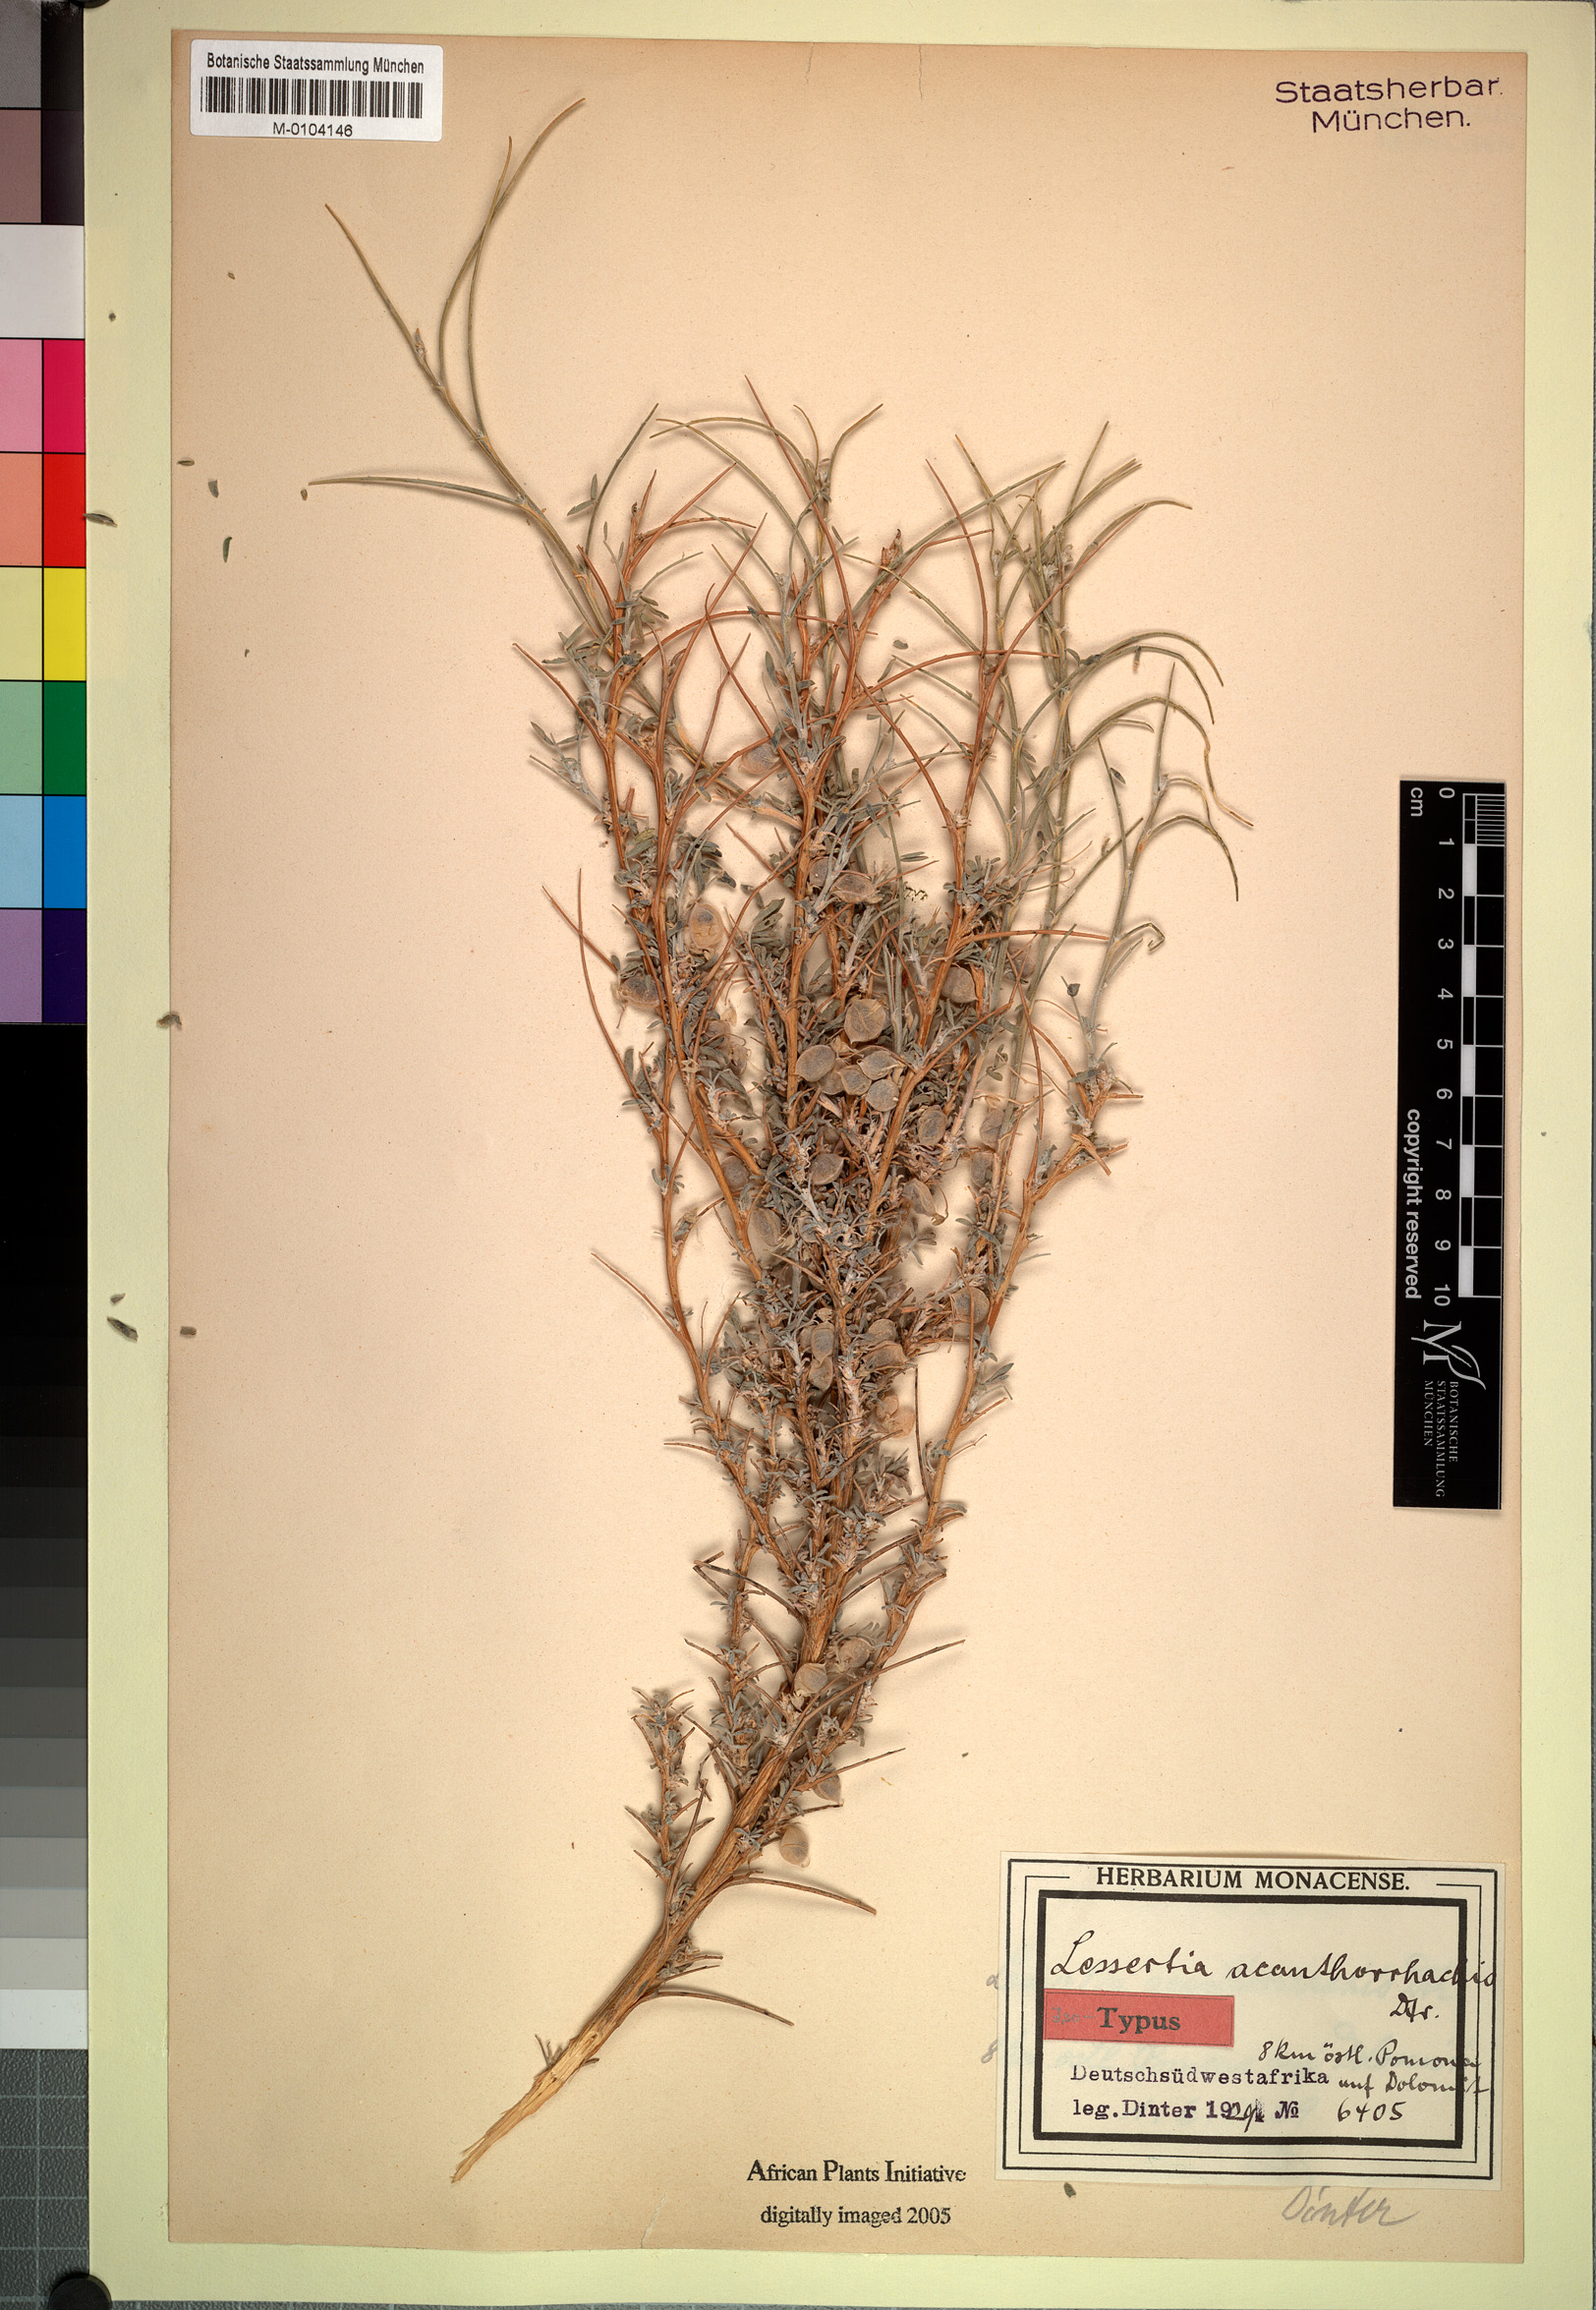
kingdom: Plantae
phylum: Tracheophyta
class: Magnoliopsida
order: Fabales
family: Fabaceae
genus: Lessertia
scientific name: Lessertia acanthorhachis
